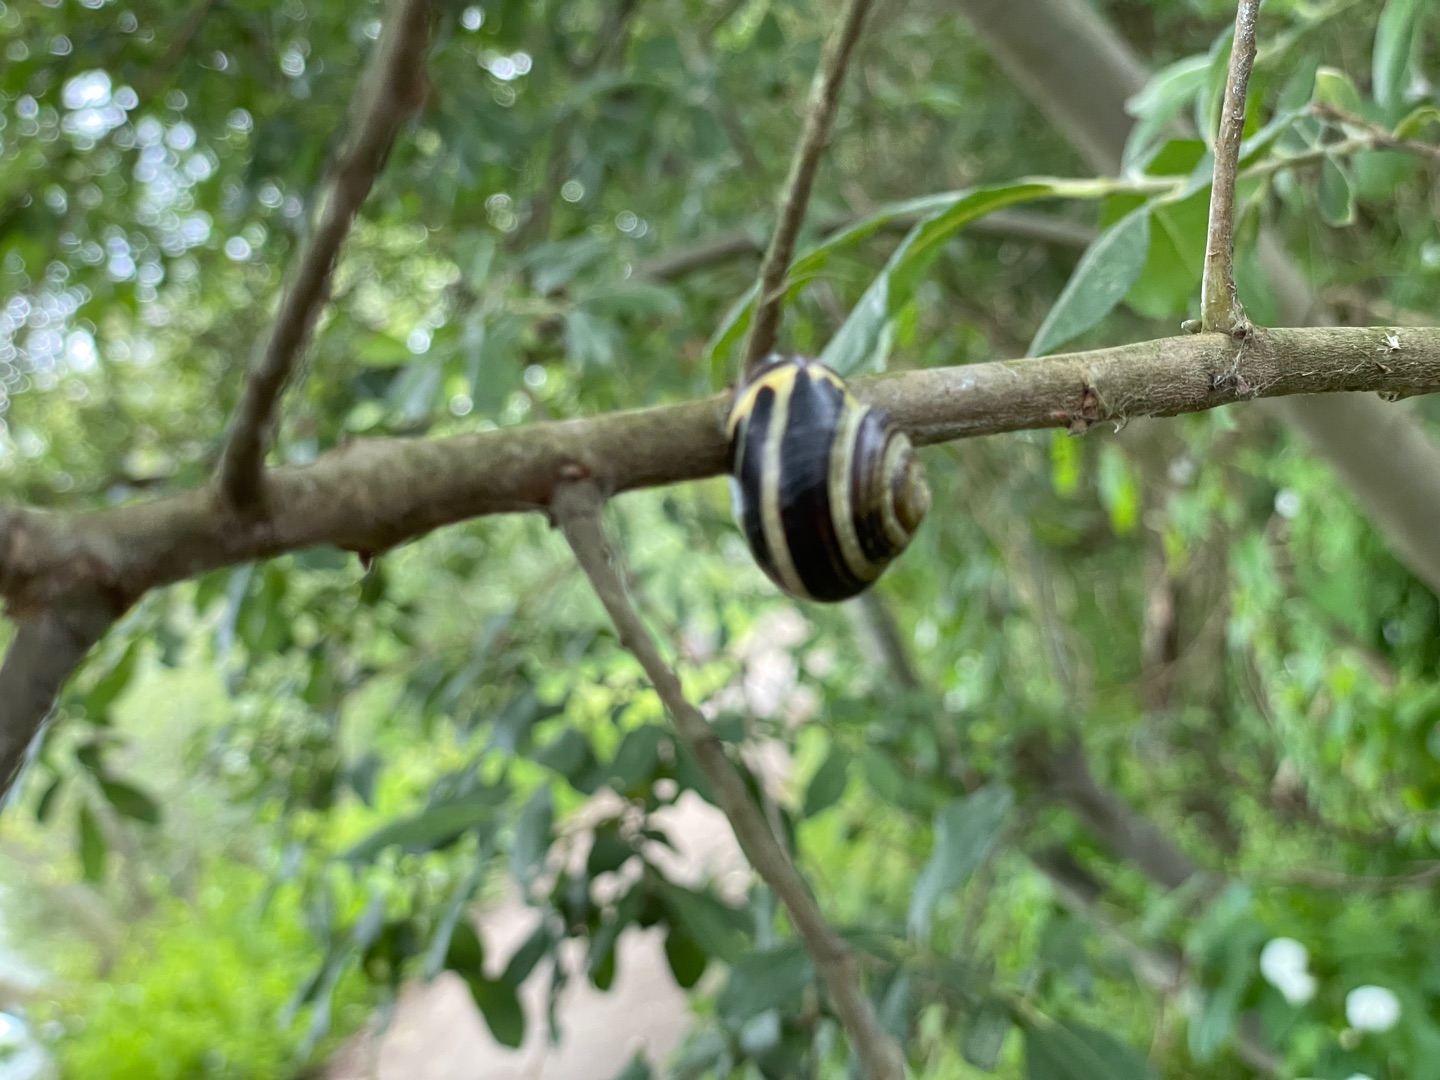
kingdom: Animalia
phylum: Mollusca
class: Gastropoda
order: Stylommatophora
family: Helicidae
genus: Cepaea
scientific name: Cepaea nemoralis
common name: Lundsnegl
